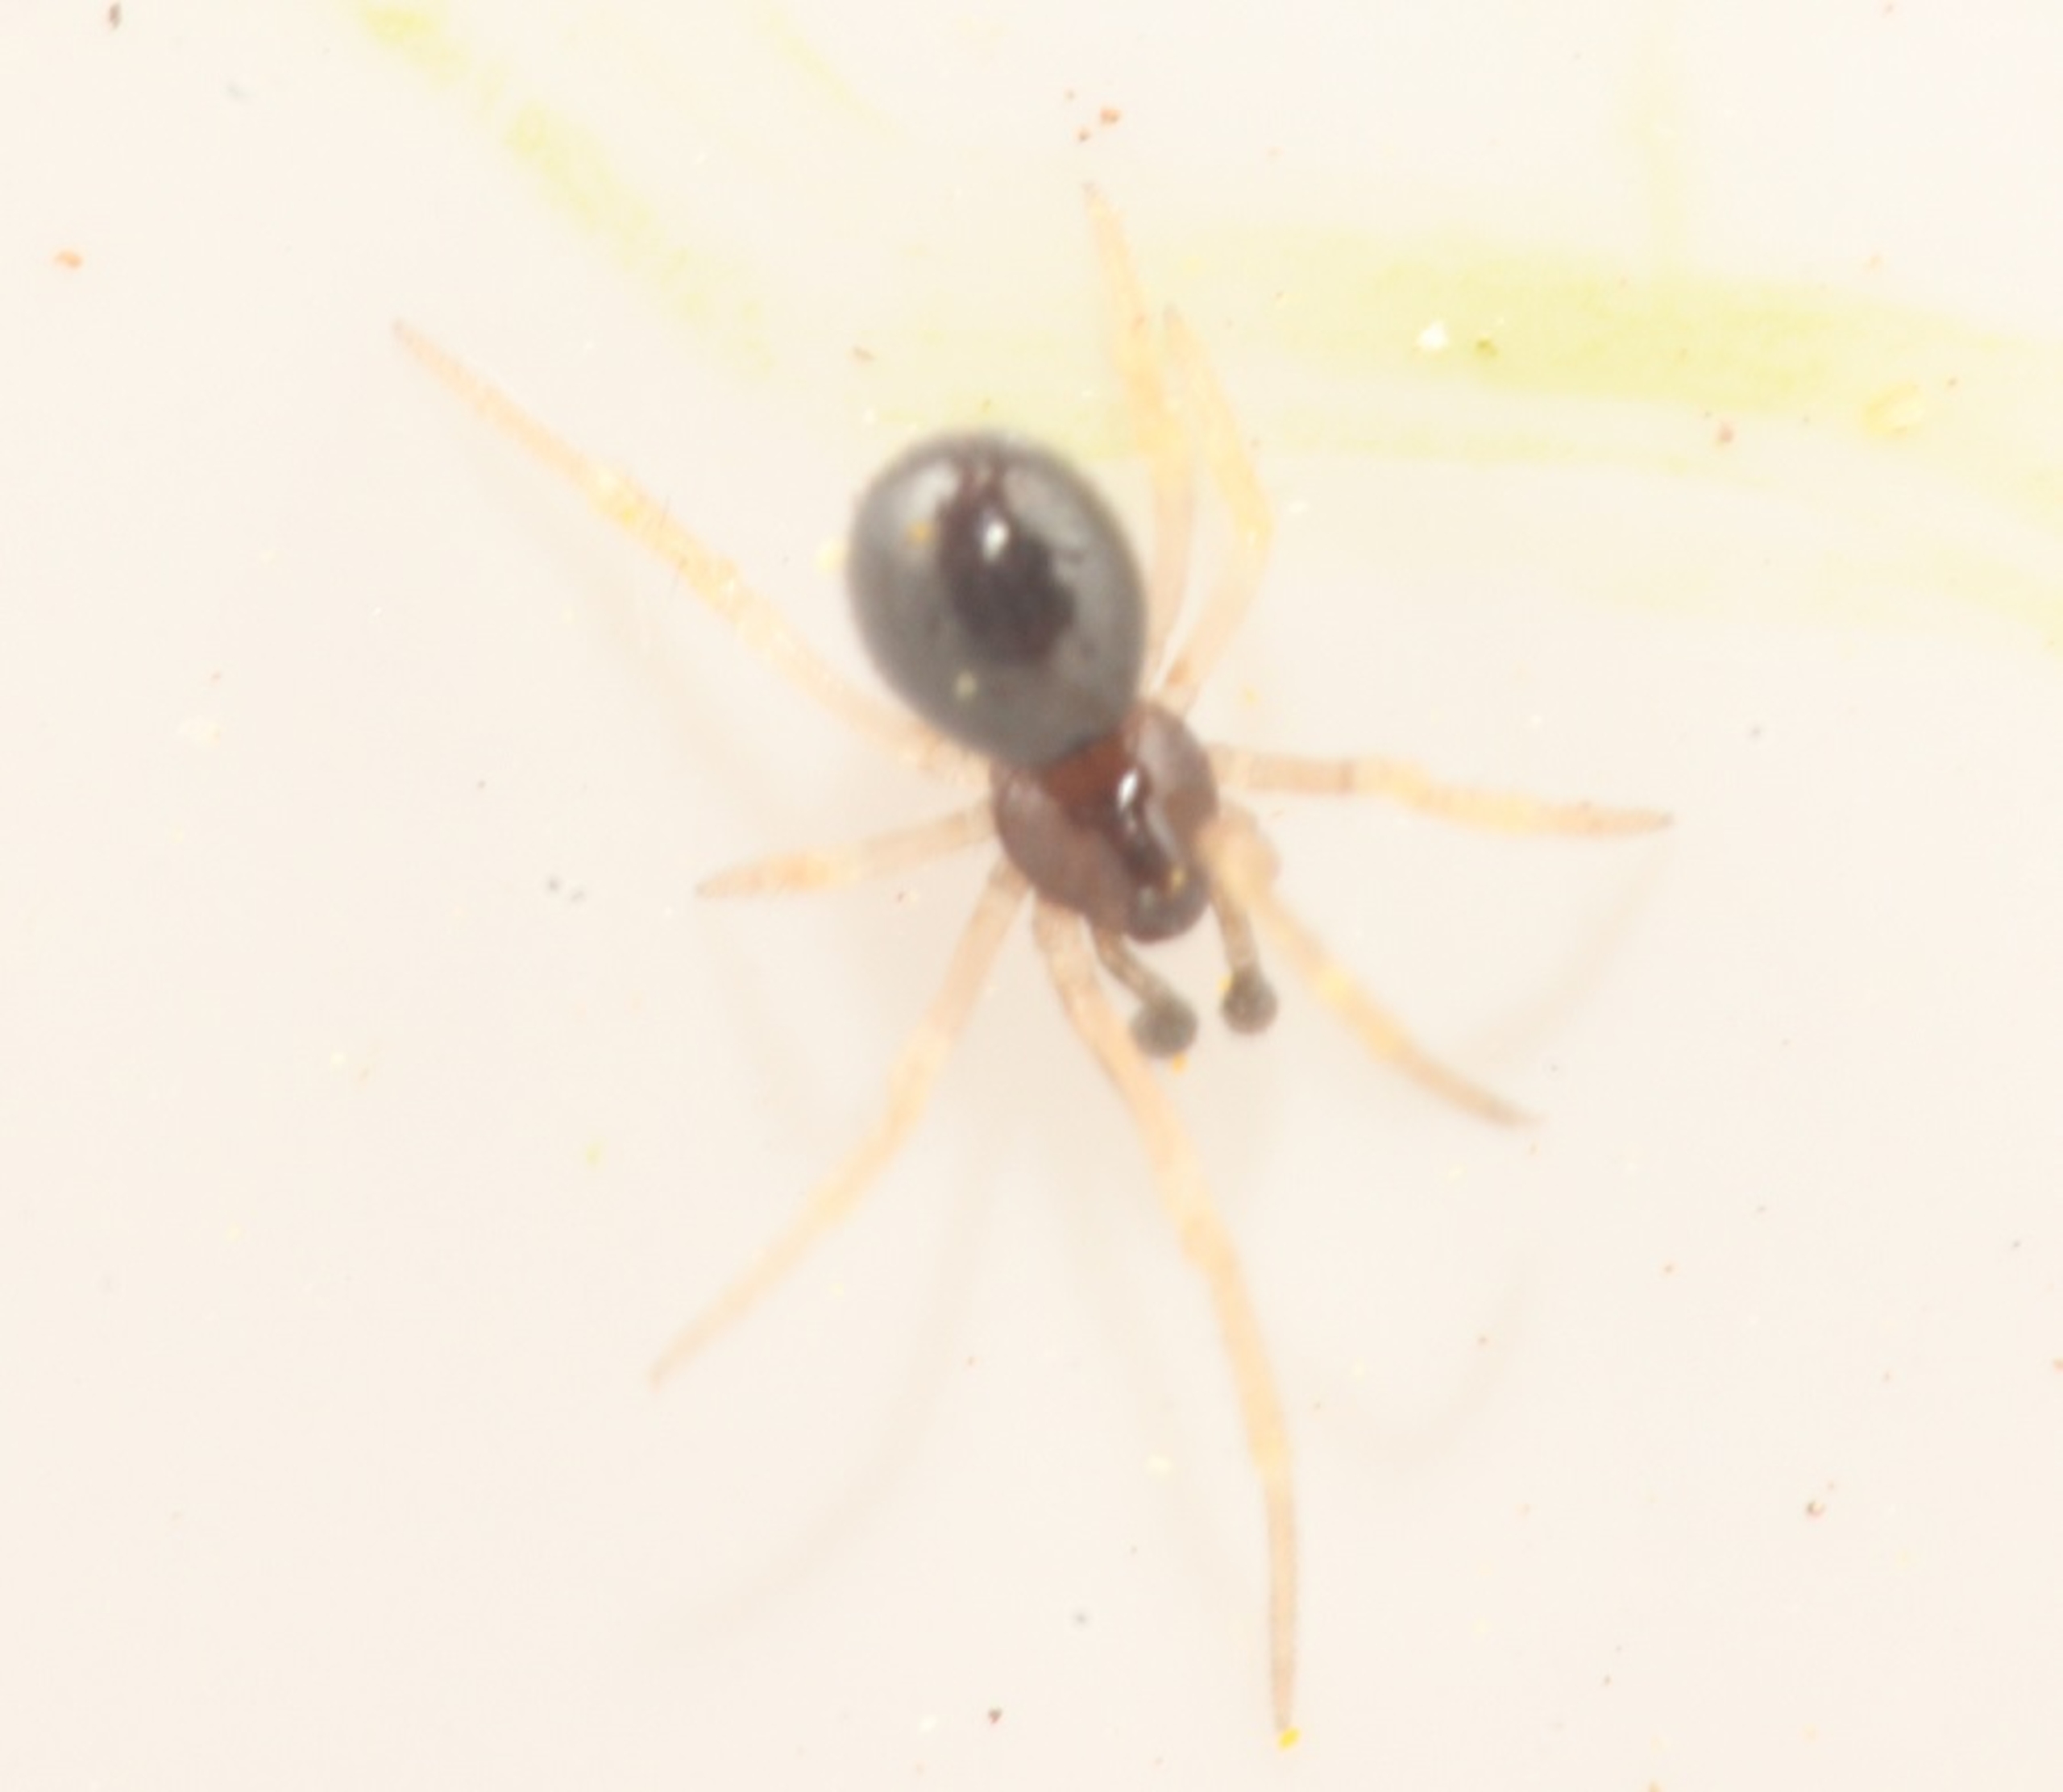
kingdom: Animalia
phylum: Arthropoda
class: Arachnida
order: Araneae
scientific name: Araneae
